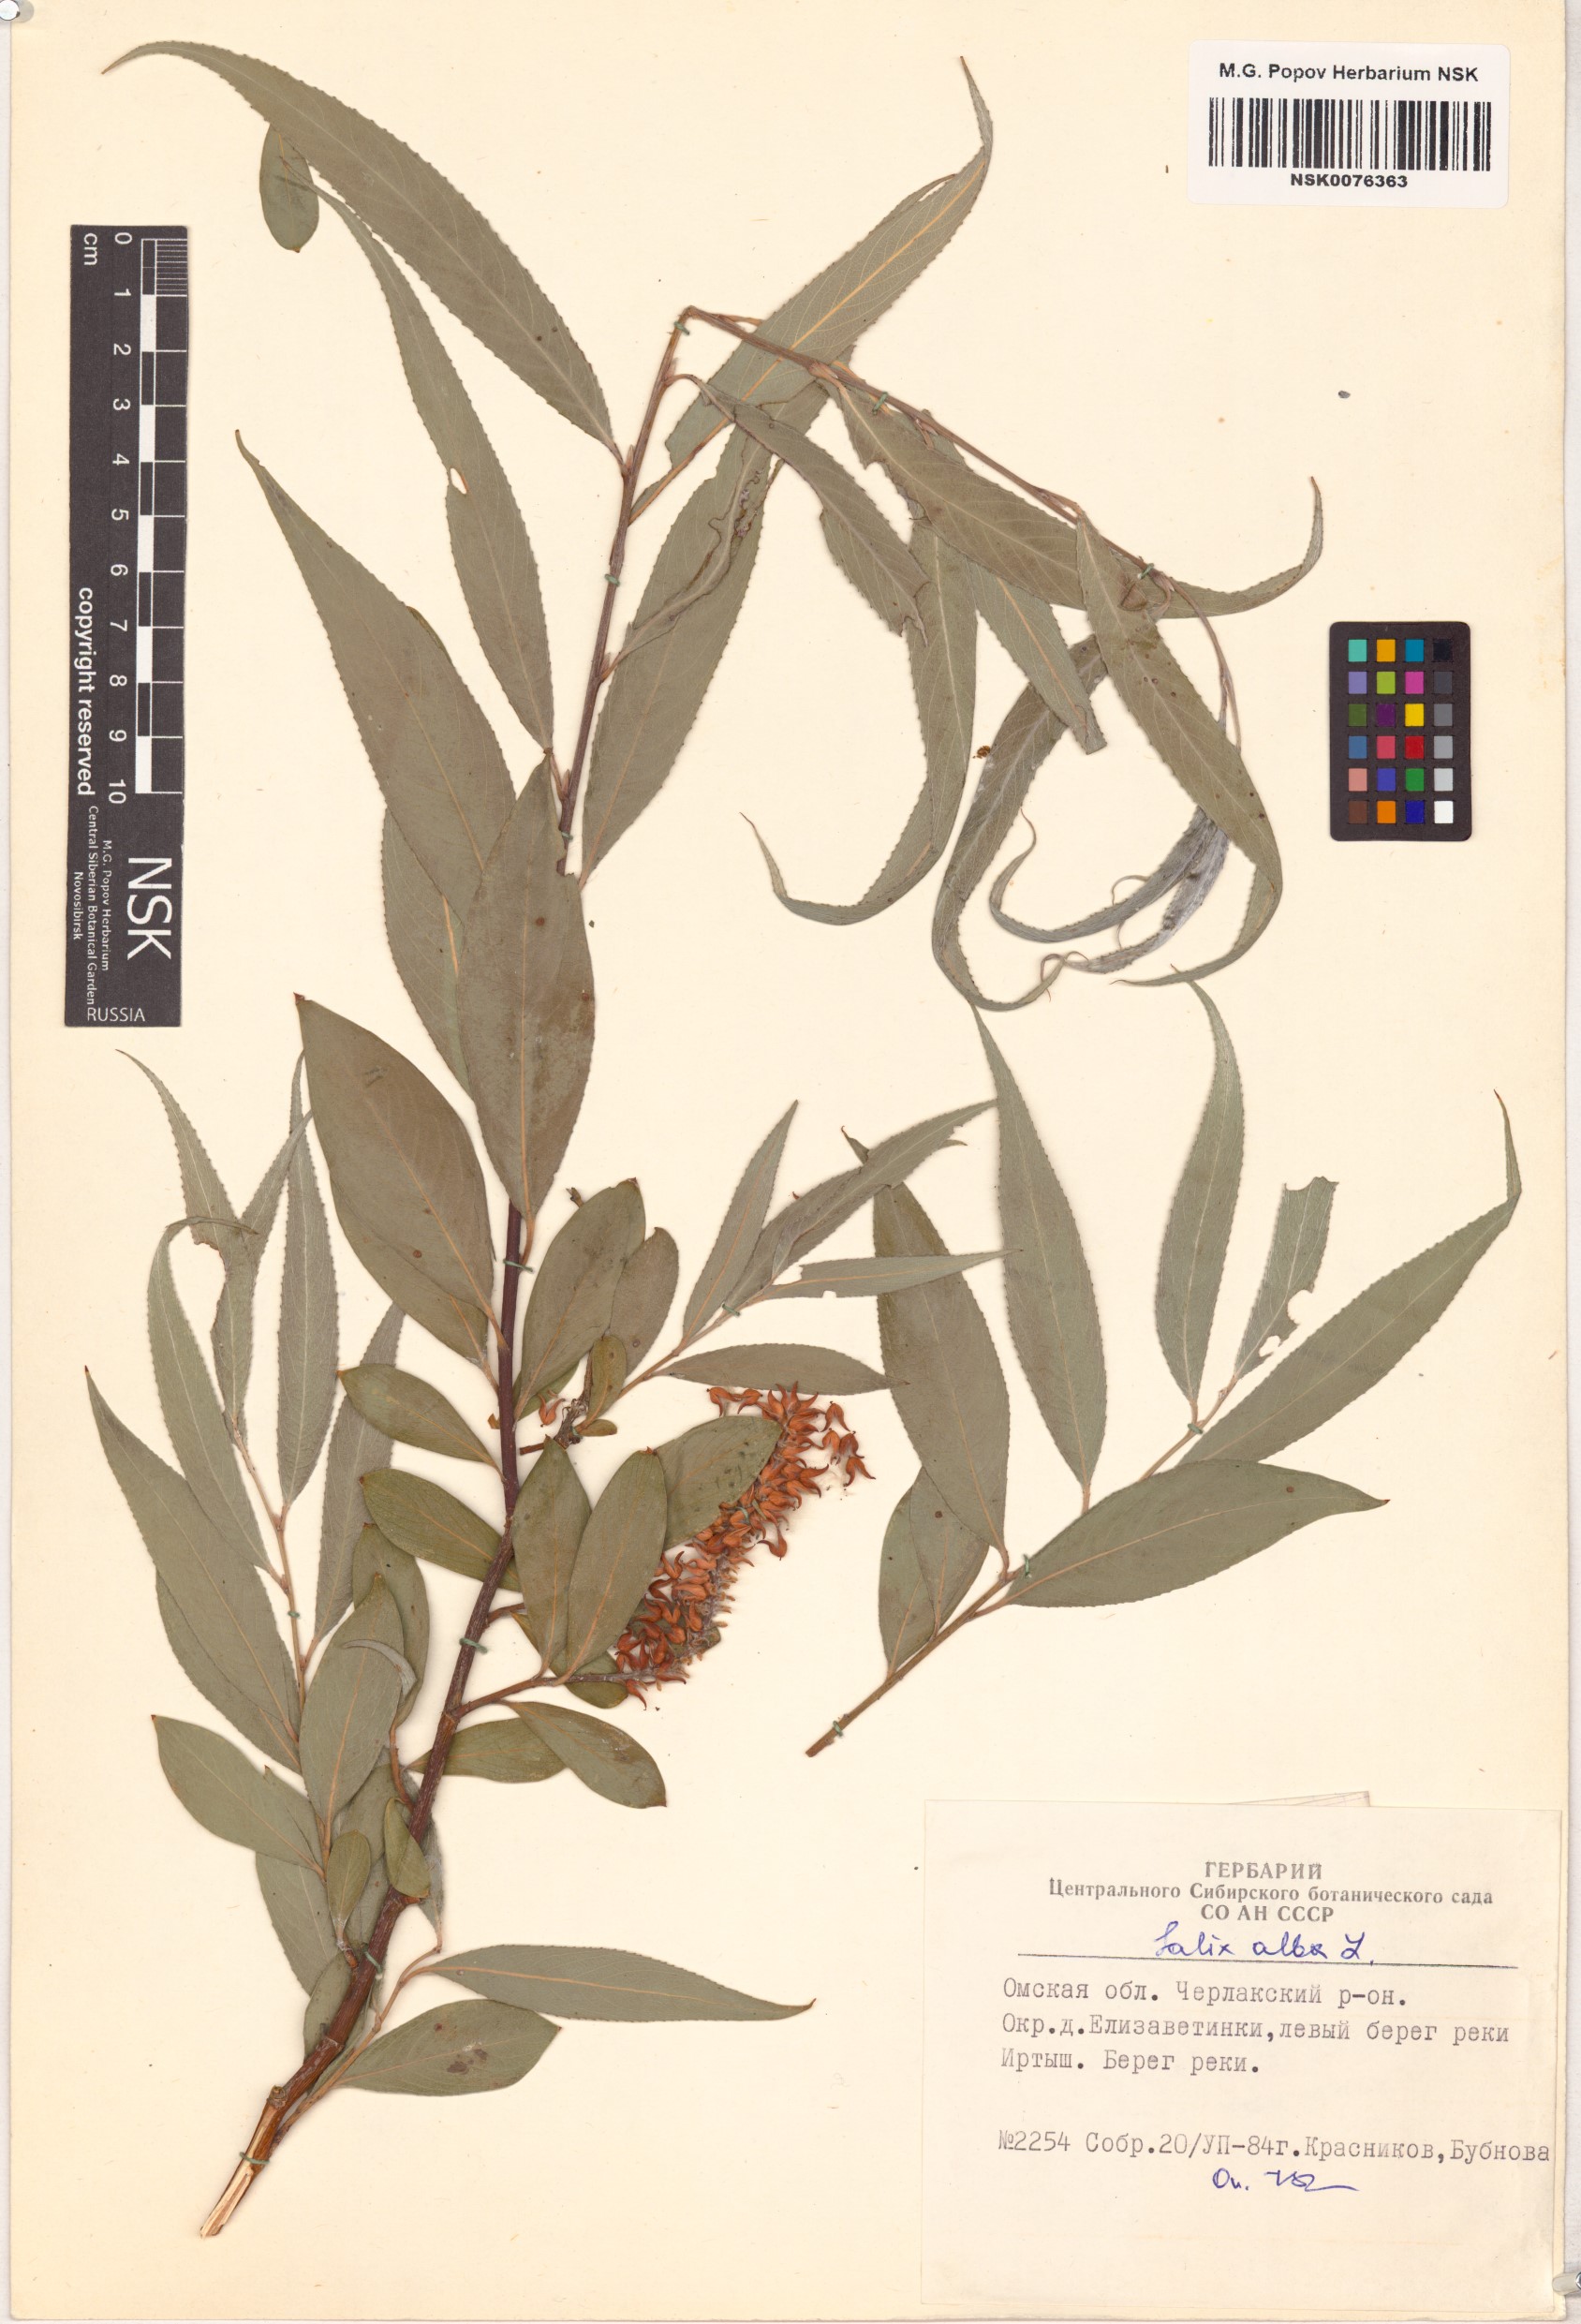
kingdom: Plantae
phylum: Tracheophyta
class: Magnoliopsida
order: Malpighiales
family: Salicaceae
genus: Salix
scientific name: Salix alba
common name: White willow
